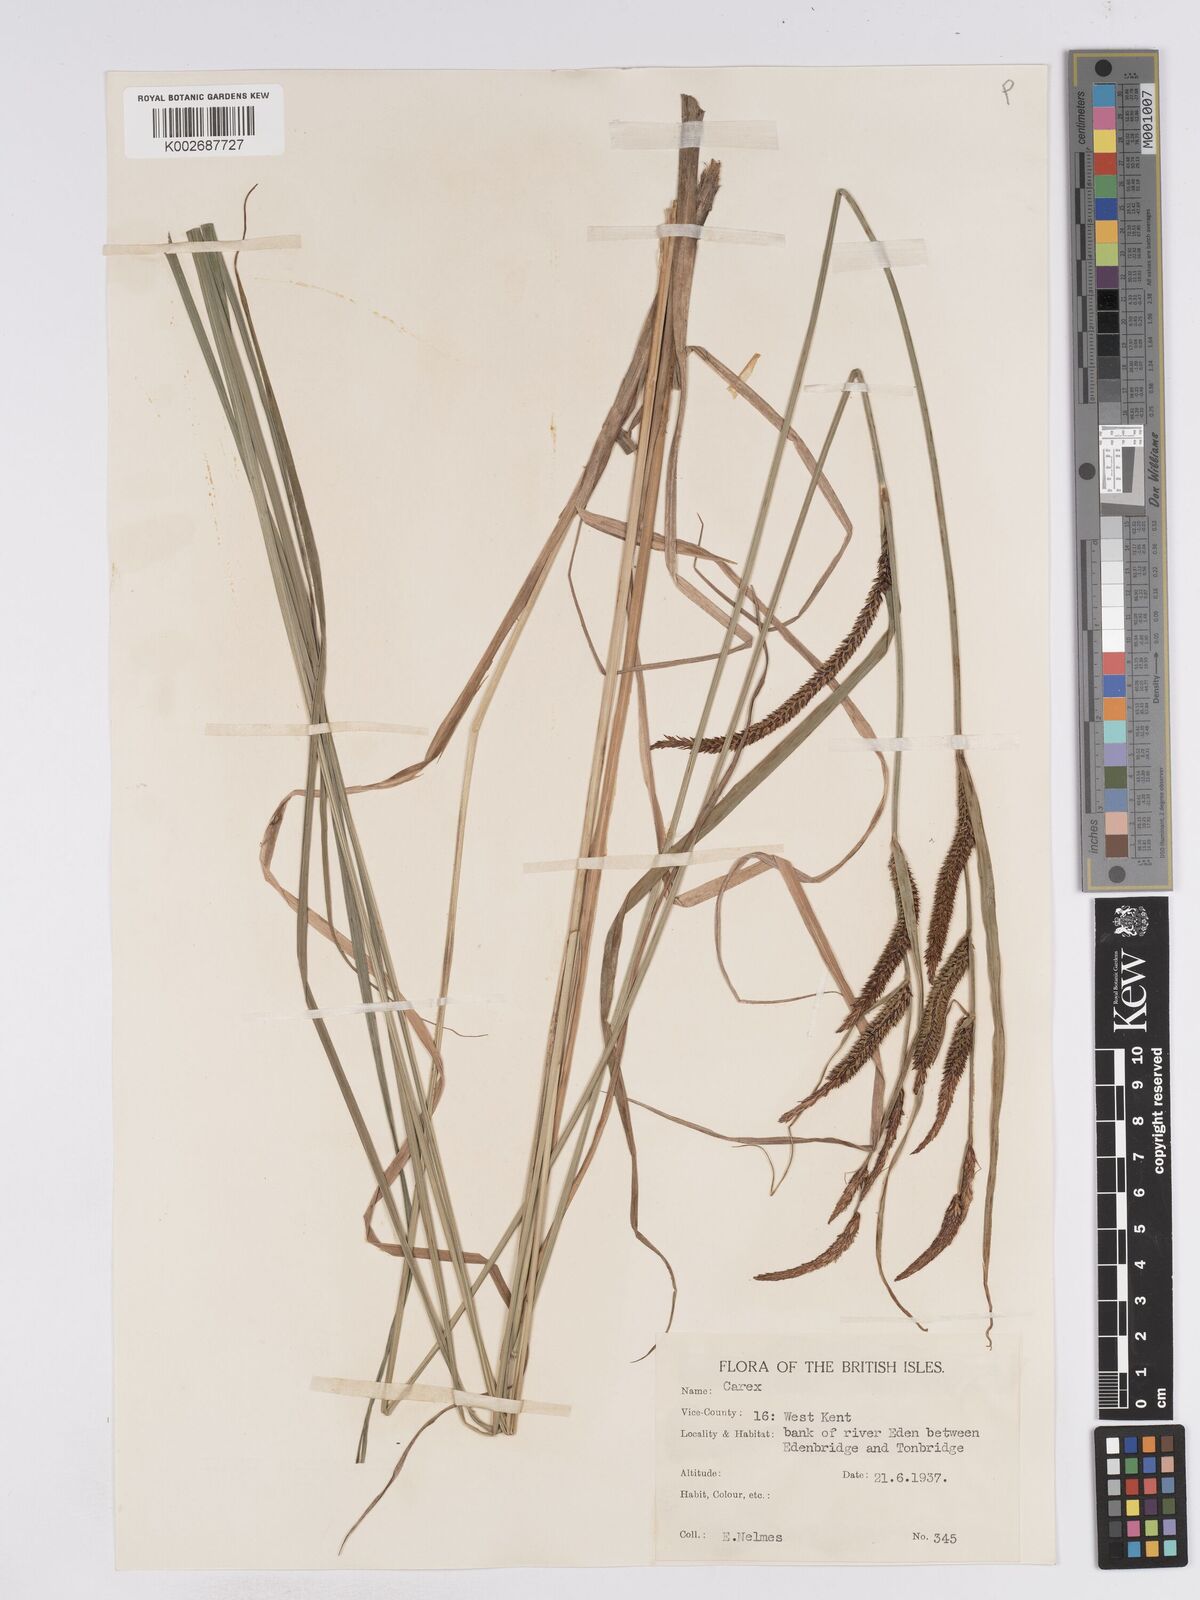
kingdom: Plantae
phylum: Tracheophyta
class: Liliopsida
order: Poales
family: Cyperaceae
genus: Carex
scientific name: Carex acuta
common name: Slender tufted-sedge
